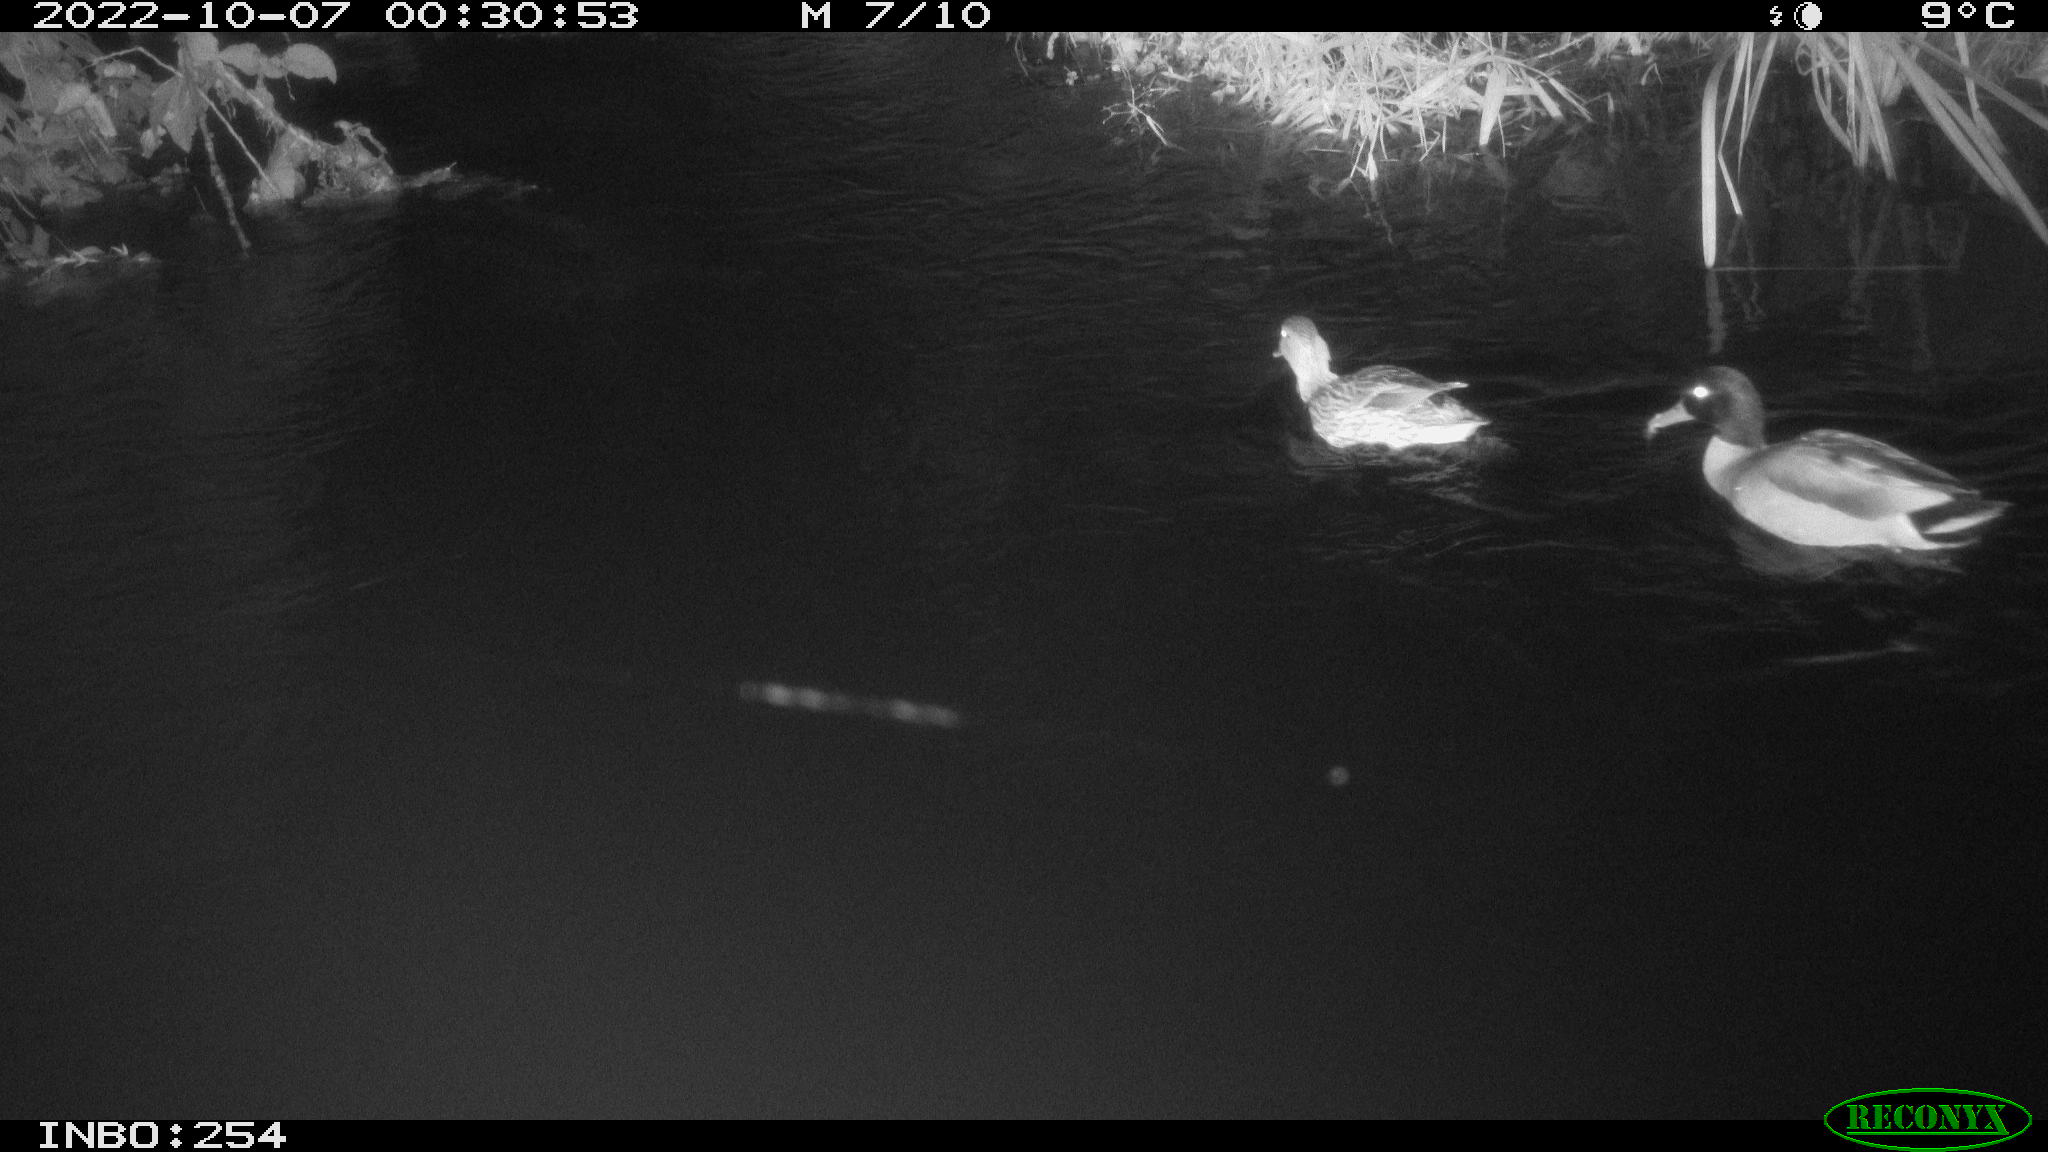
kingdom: Animalia
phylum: Chordata
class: Aves
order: Anseriformes
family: Anatidae
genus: Anas
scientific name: Anas
